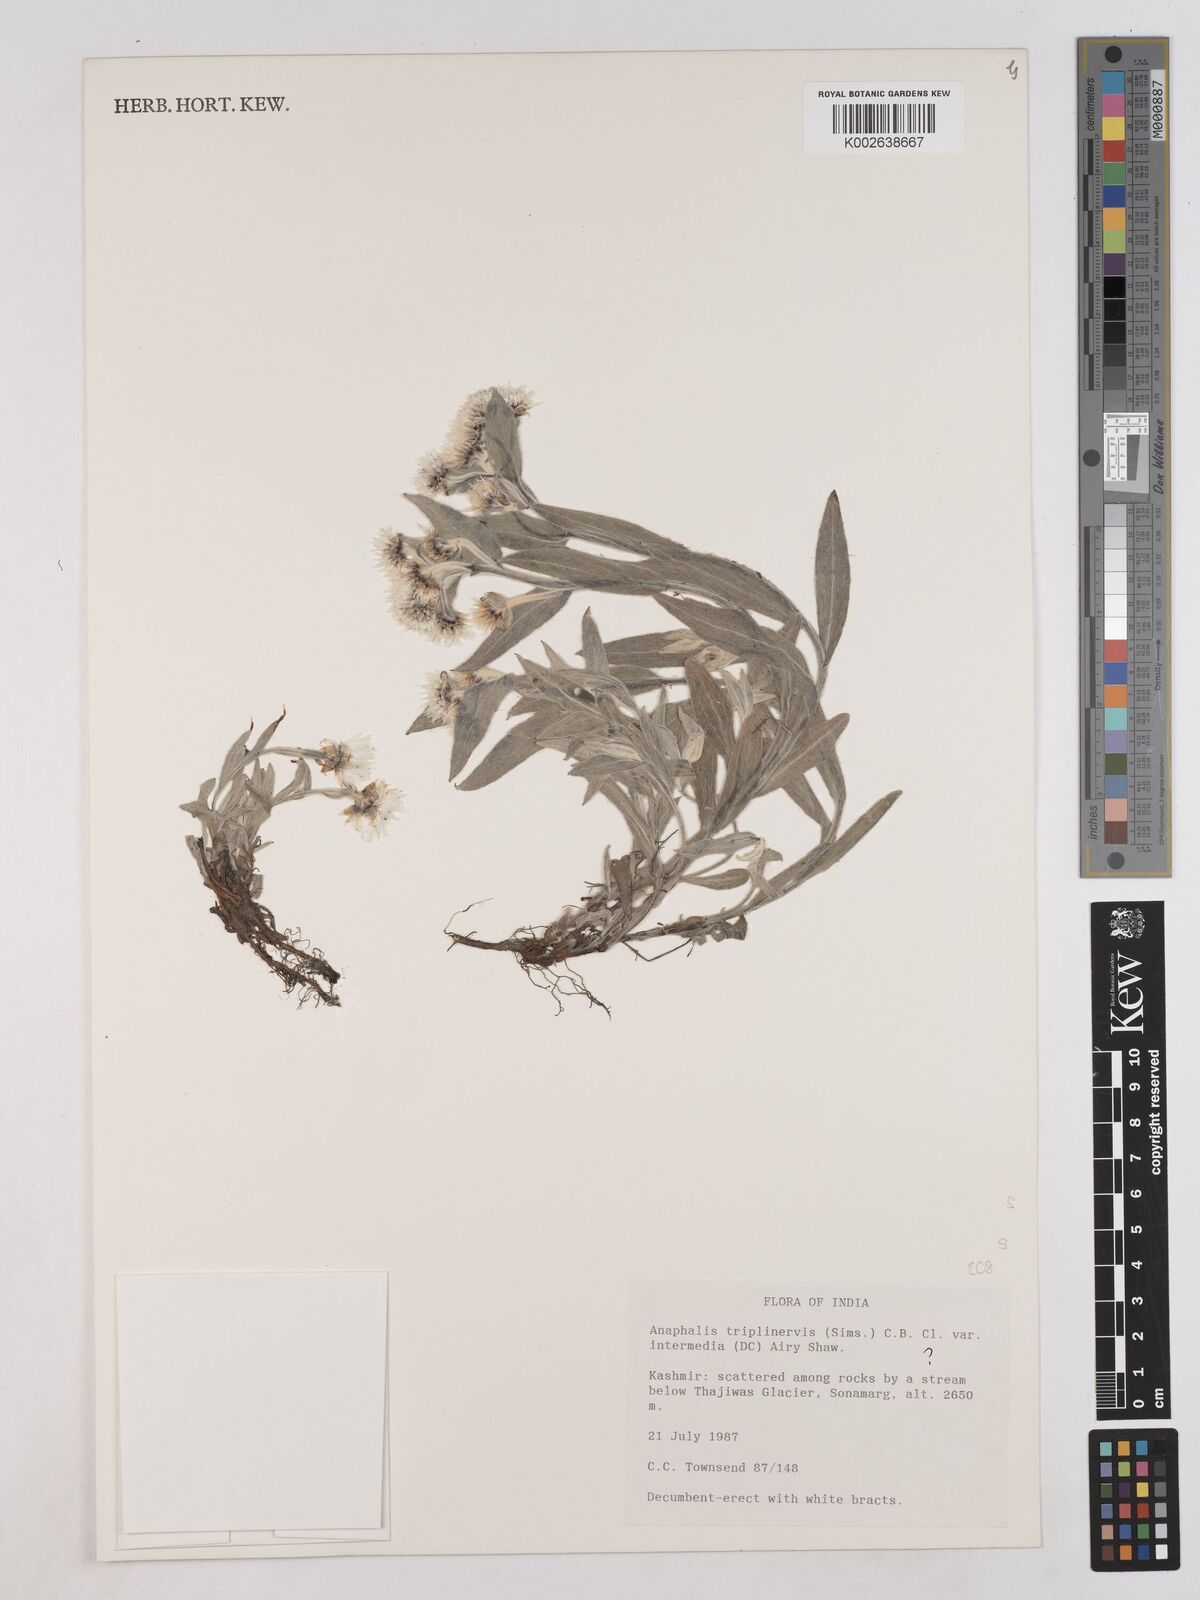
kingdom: Plantae
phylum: Tracheophyta
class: Magnoliopsida
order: Asterales
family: Asteraceae
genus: Anaphalioides
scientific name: Anaphalioides trinervis
